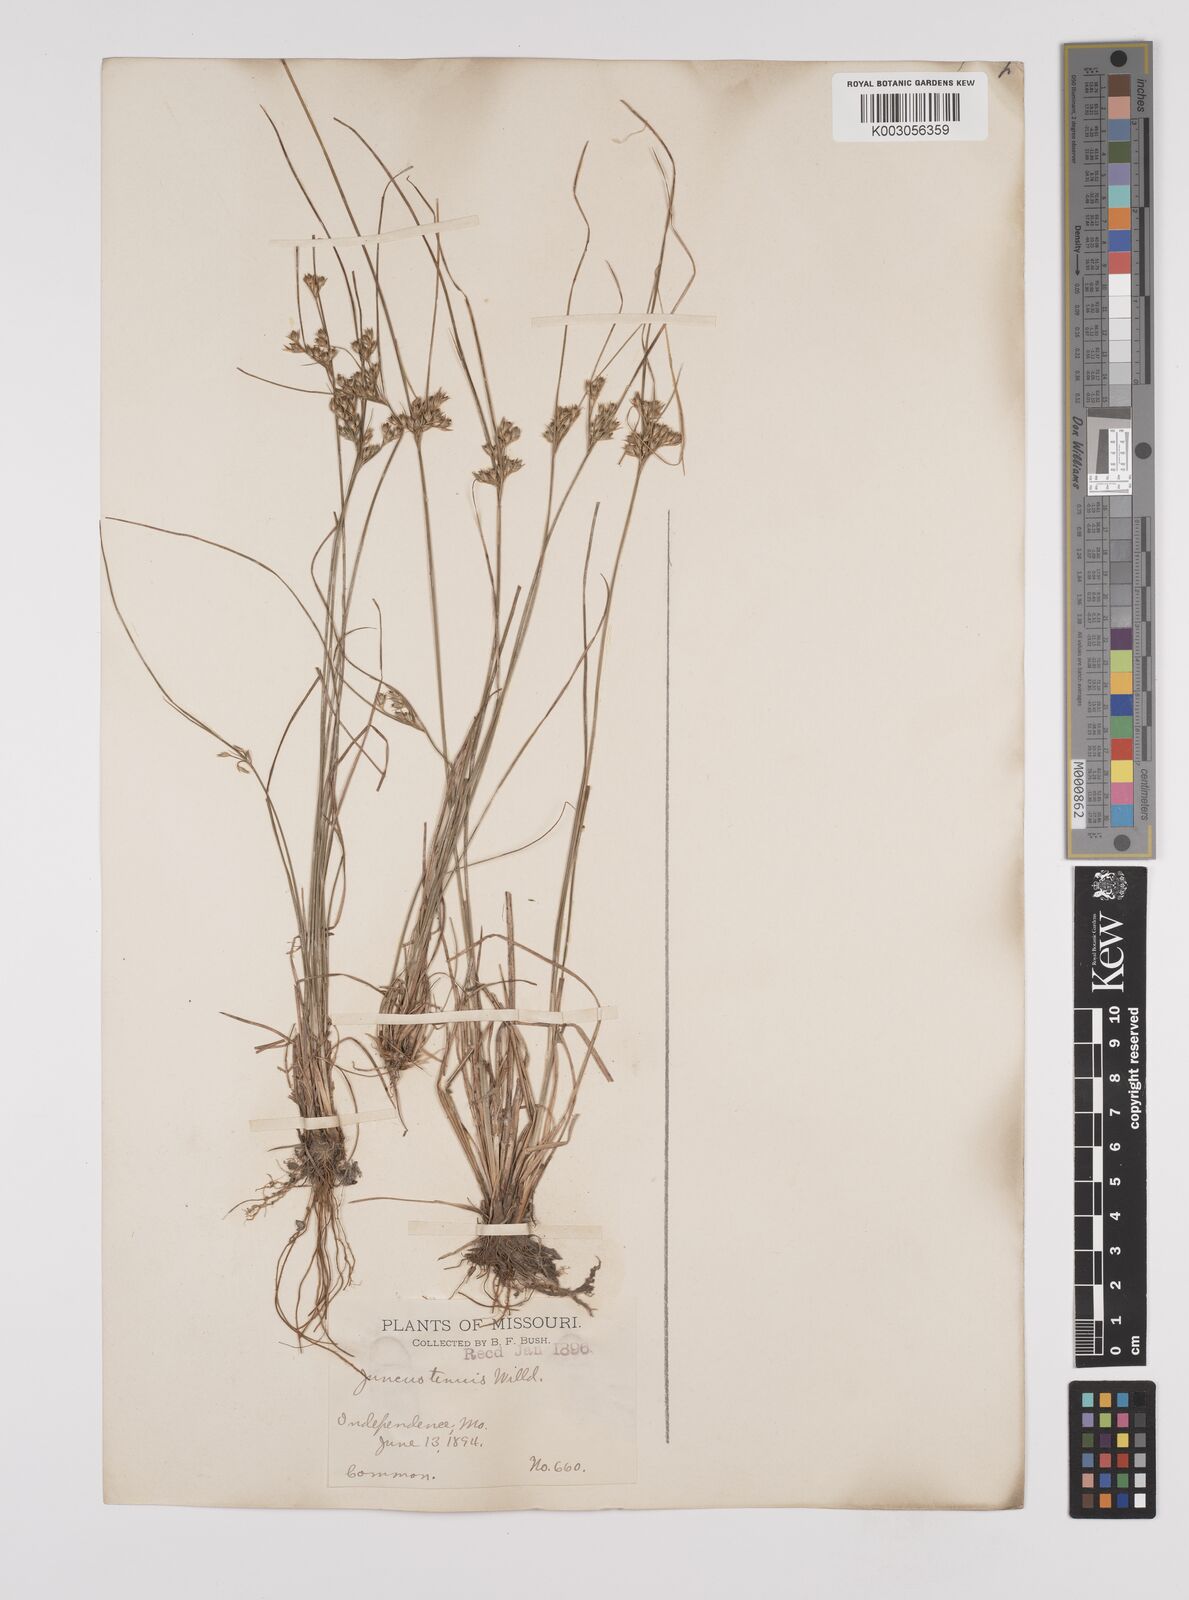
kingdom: Plantae
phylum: Tracheophyta
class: Liliopsida
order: Poales
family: Juncaceae
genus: Juncus
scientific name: Juncus tenuis
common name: Slender rush
